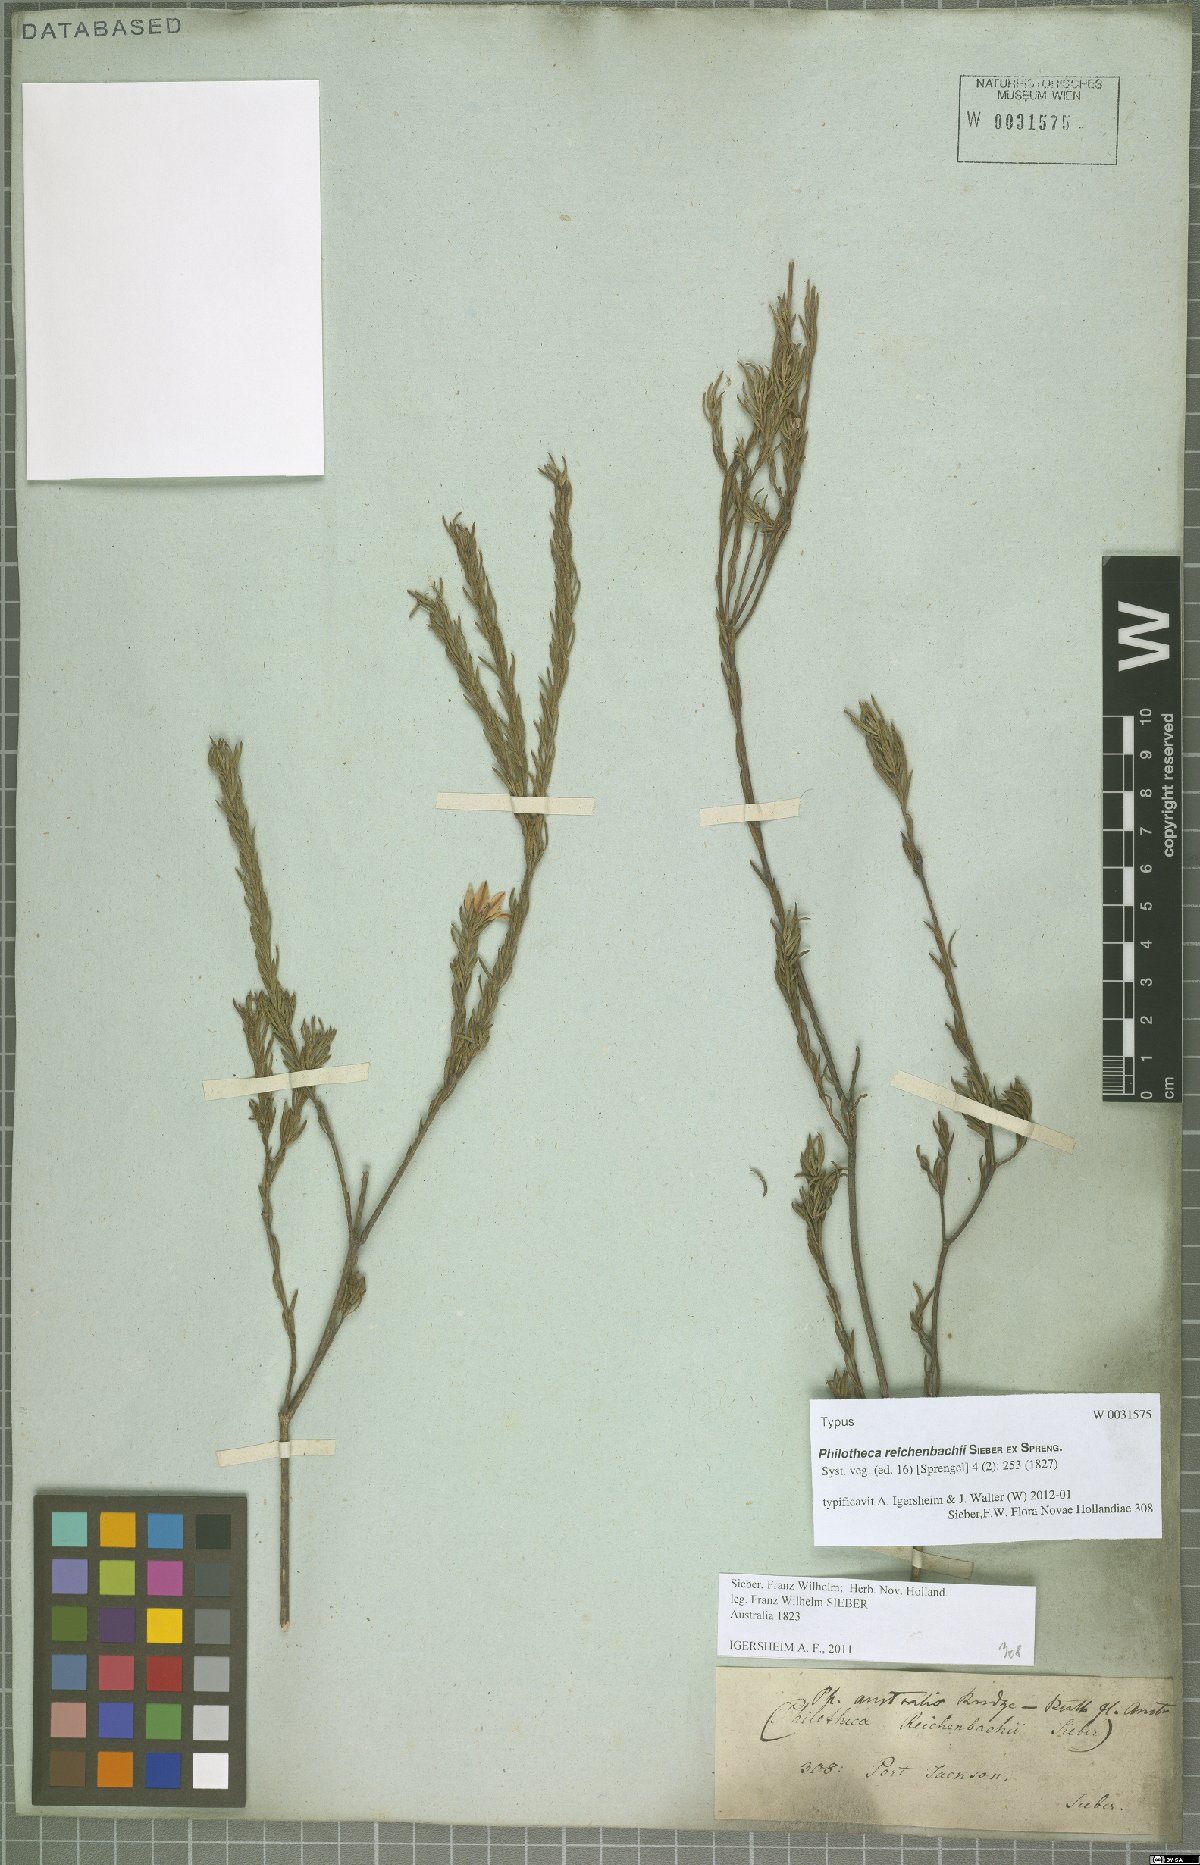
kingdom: Plantae
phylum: Tracheophyta
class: Magnoliopsida
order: Sapindales
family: Rutaceae
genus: Philotheca
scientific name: Philotheca reichenbachii
